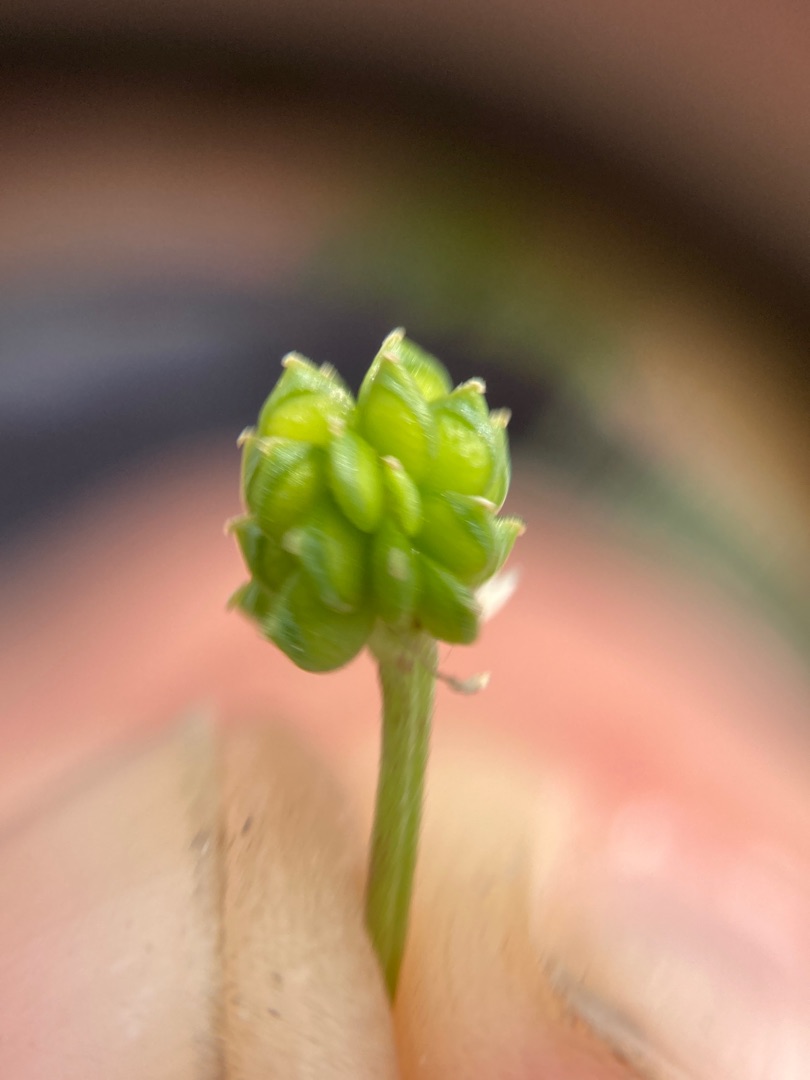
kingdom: Plantae
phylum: Tracheophyta
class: Magnoliopsida
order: Ranunculales
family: Ranunculaceae
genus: Ranunculus
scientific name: Ranunculus sardous
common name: Stivhåret ranunkel
